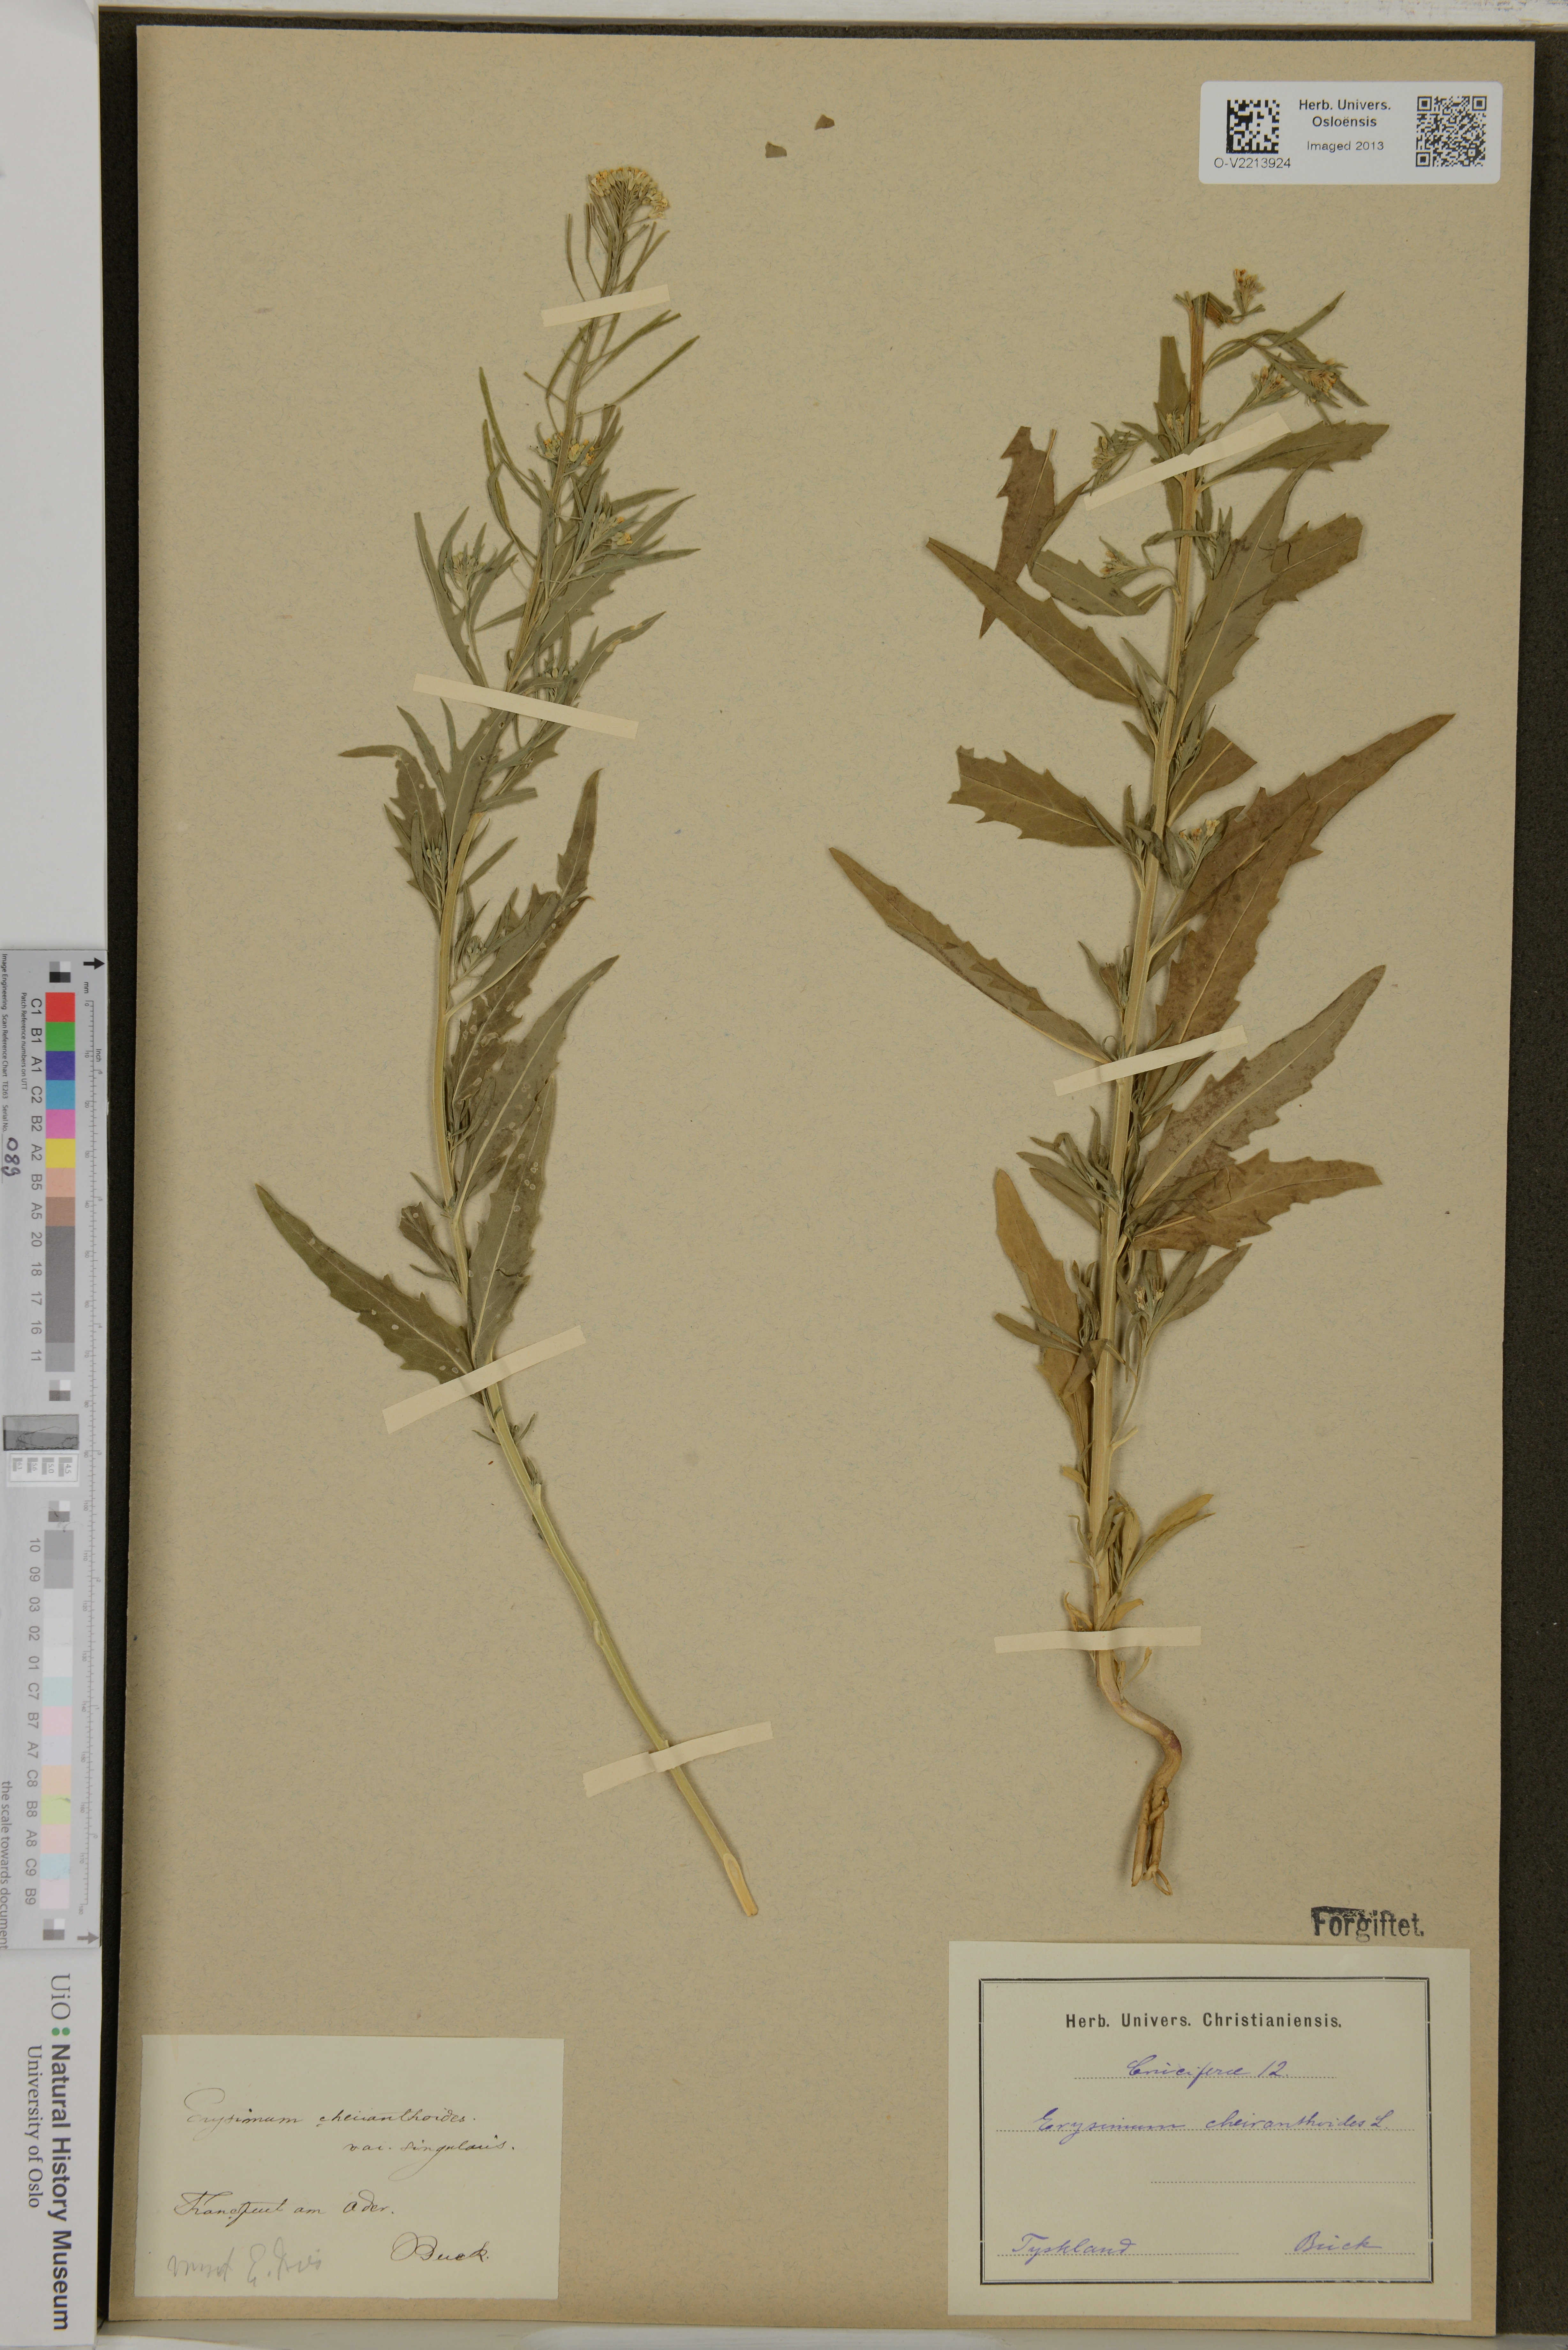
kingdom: Plantae
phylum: Tracheophyta
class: Magnoliopsida
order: Brassicales
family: Brassicaceae
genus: Erysimum
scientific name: Erysimum cheiranthoides
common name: Treacle mustard
